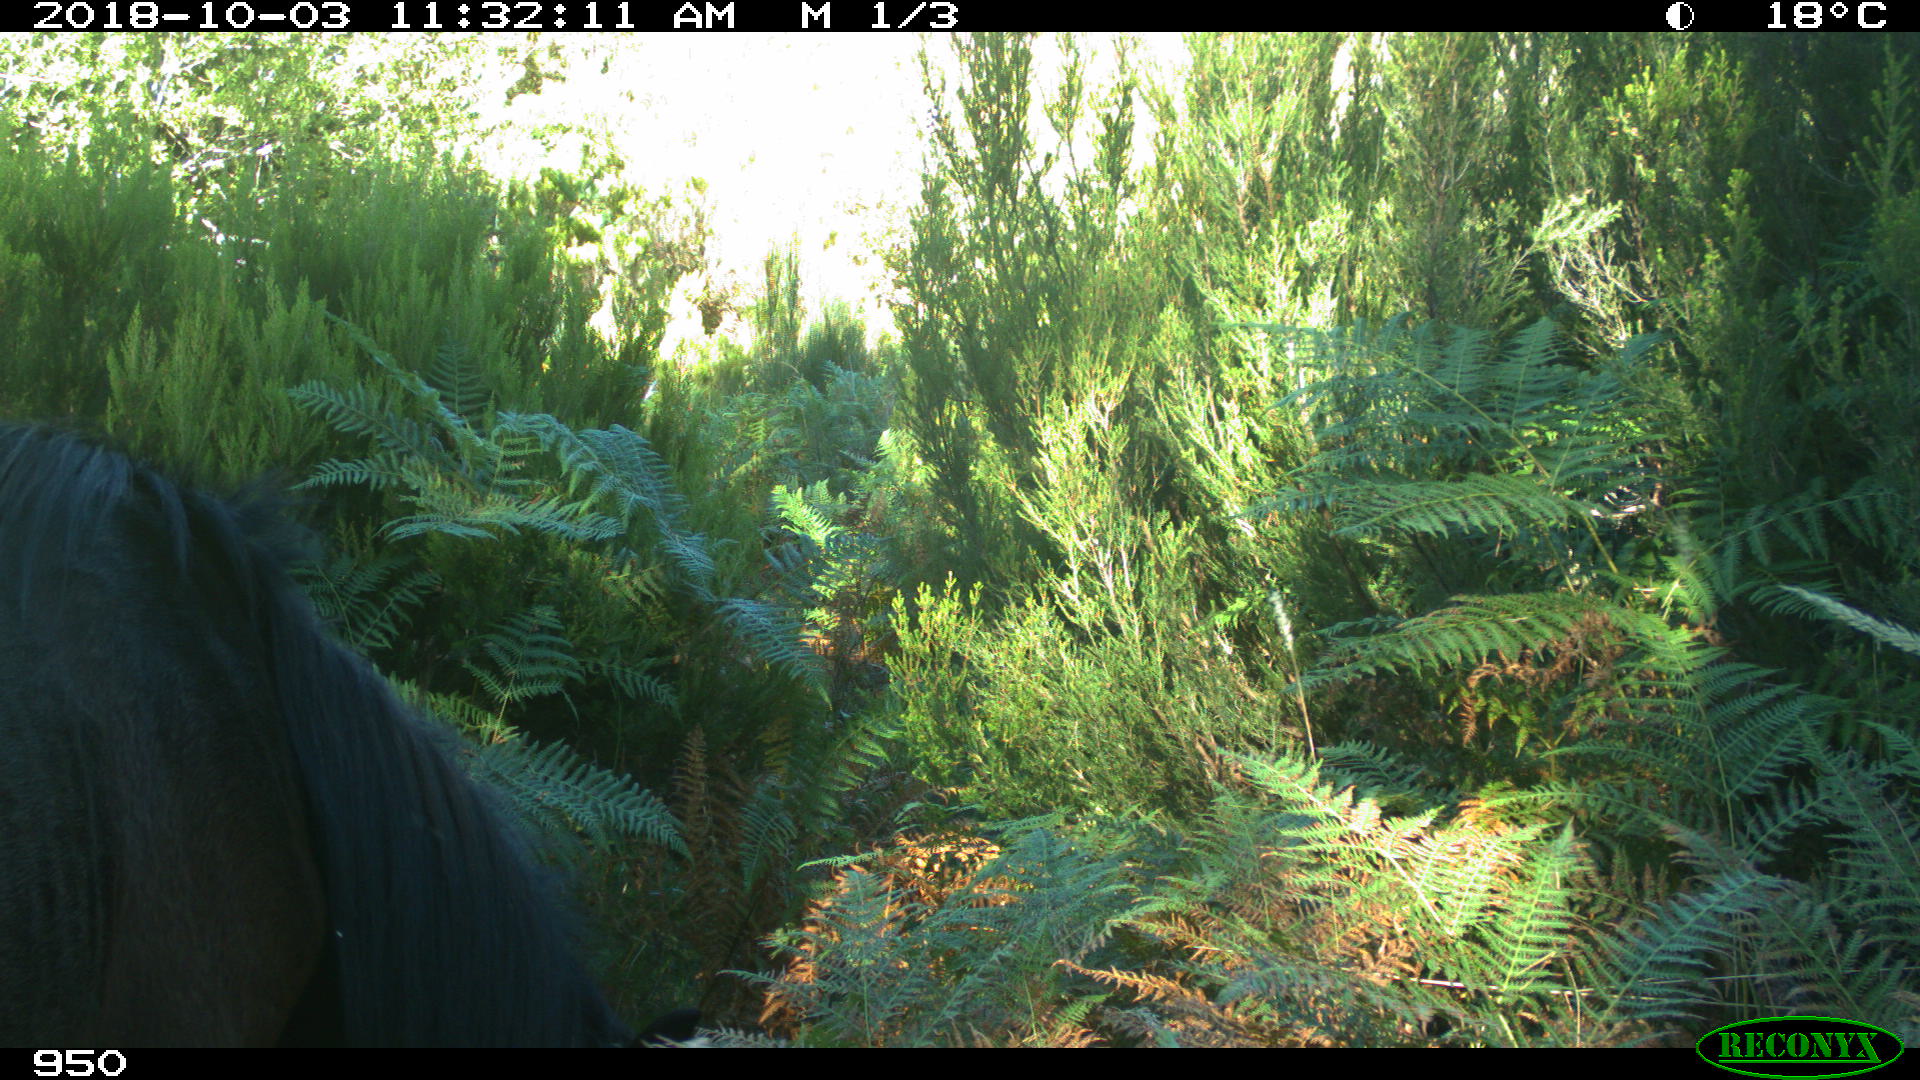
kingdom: Animalia
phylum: Chordata
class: Mammalia
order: Perissodactyla
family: Equidae
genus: Equus
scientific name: Equus caballus
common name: Horse
